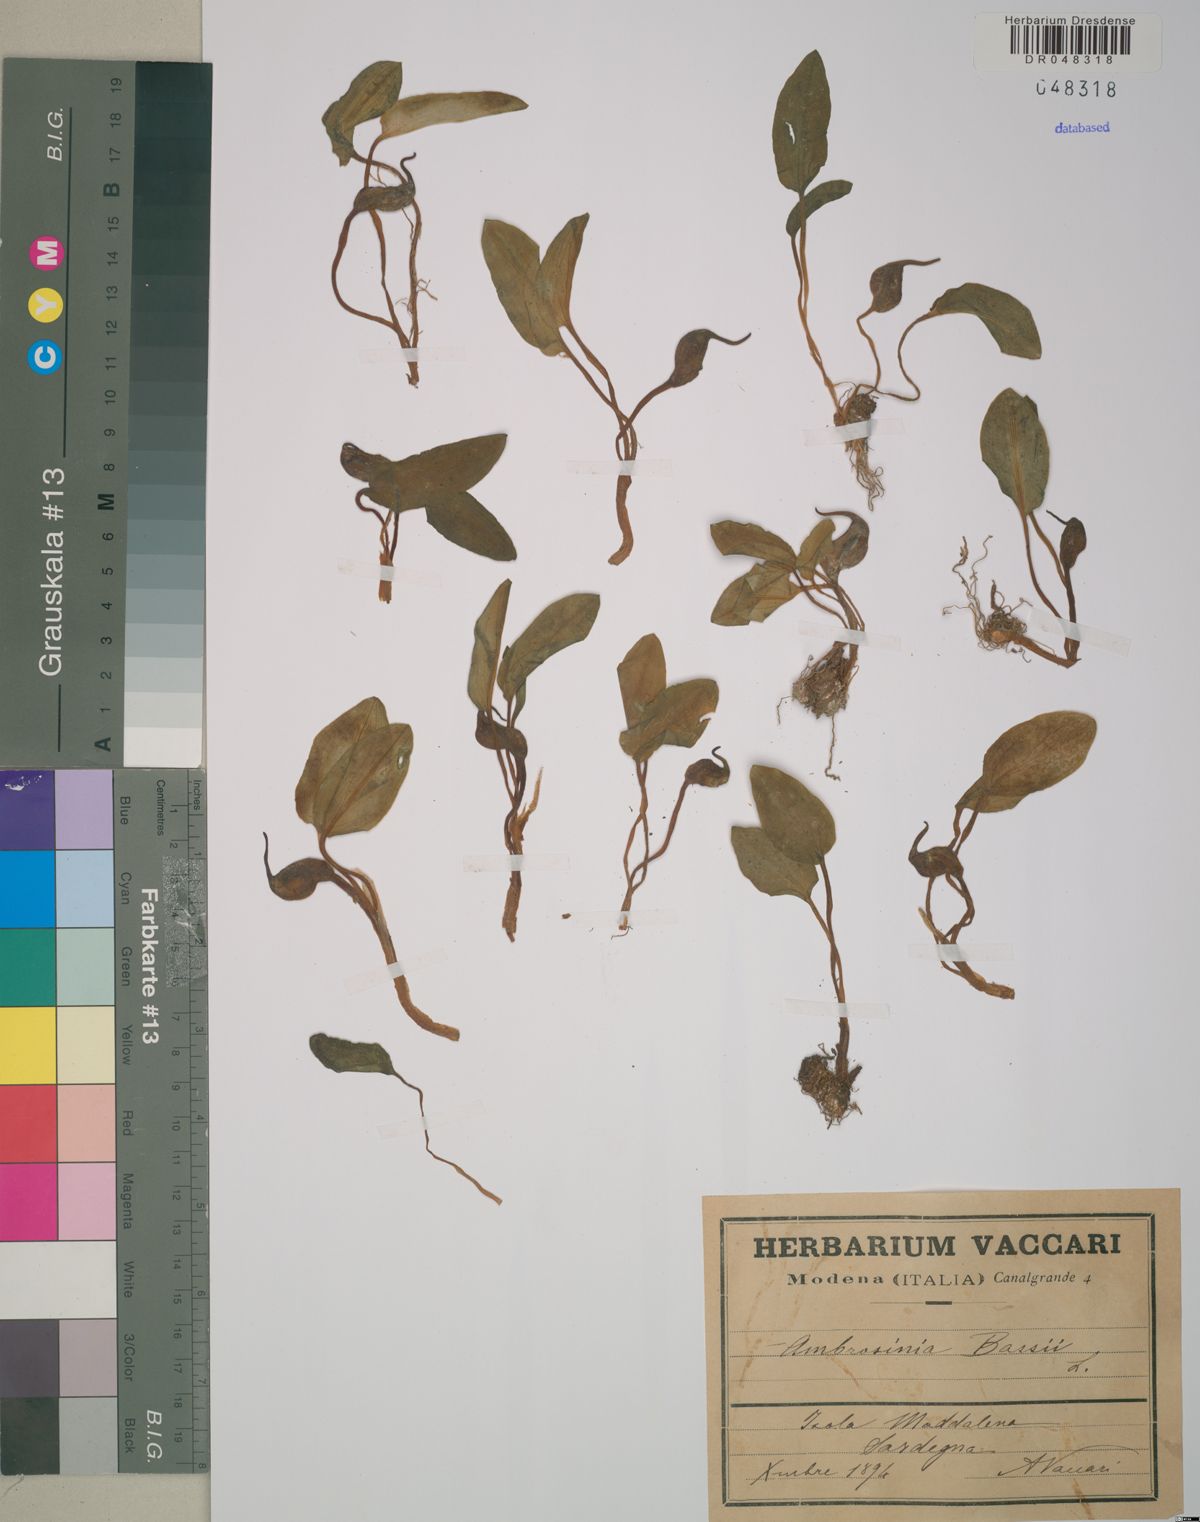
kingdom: Plantae
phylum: Tracheophyta
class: Liliopsida
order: Alismatales
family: Araceae
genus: Ambrosina
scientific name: Ambrosina bassii
